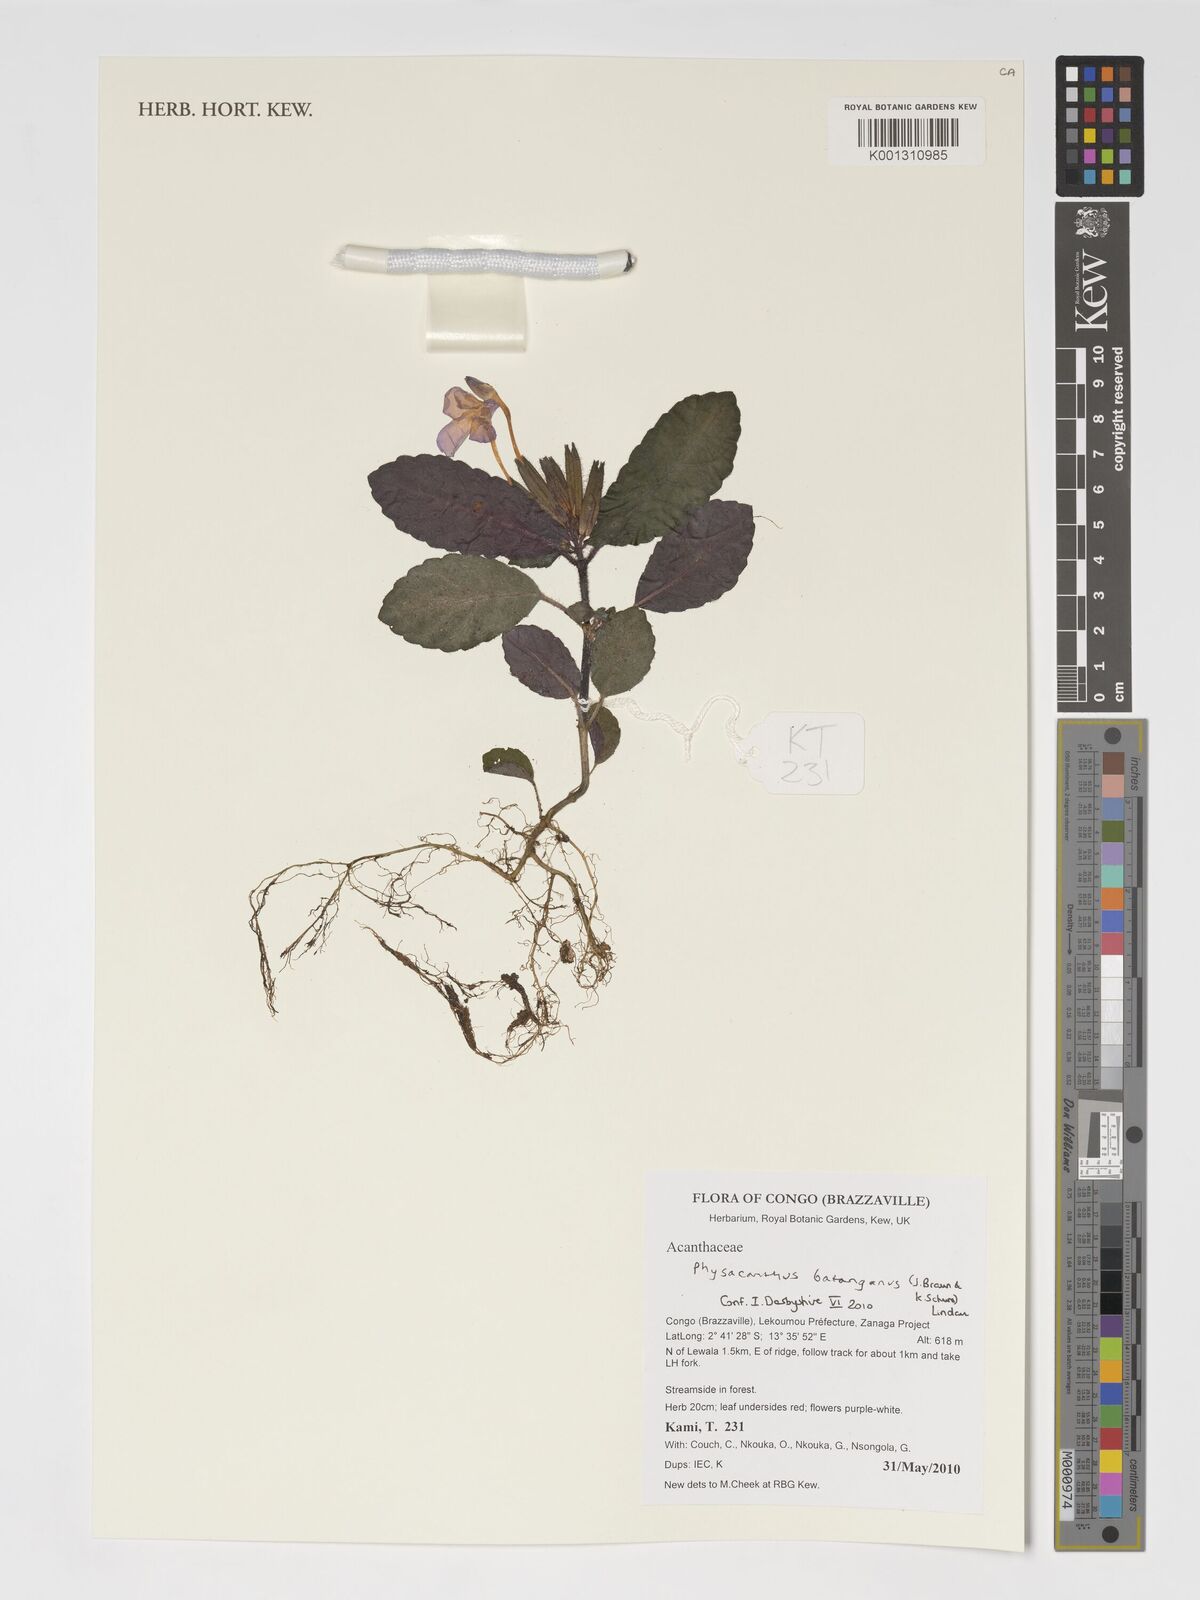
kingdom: Plantae
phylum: Tracheophyta
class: Magnoliopsida
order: Lamiales
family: Acanthaceae
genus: Physacanthus
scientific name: Physacanthus batanganus
